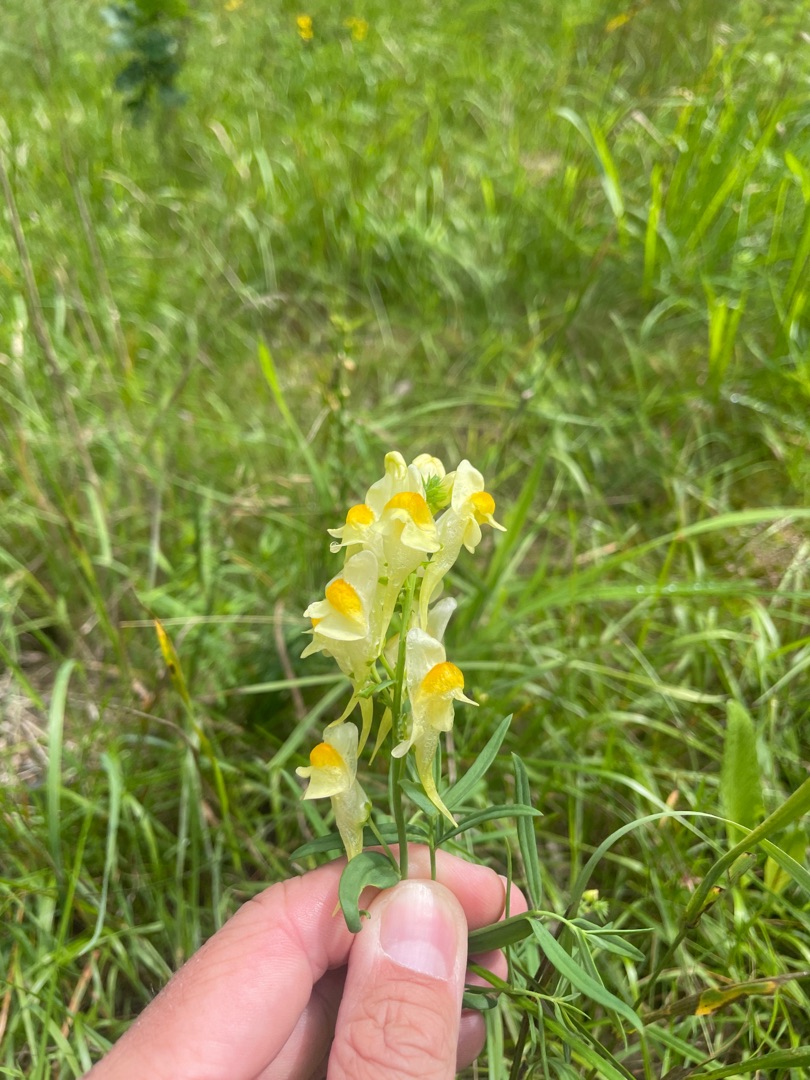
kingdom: Plantae
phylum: Tracheophyta
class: Magnoliopsida
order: Lamiales
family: Plantaginaceae
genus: Linaria
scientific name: Linaria vulgaris
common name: Almindelig torskemund
